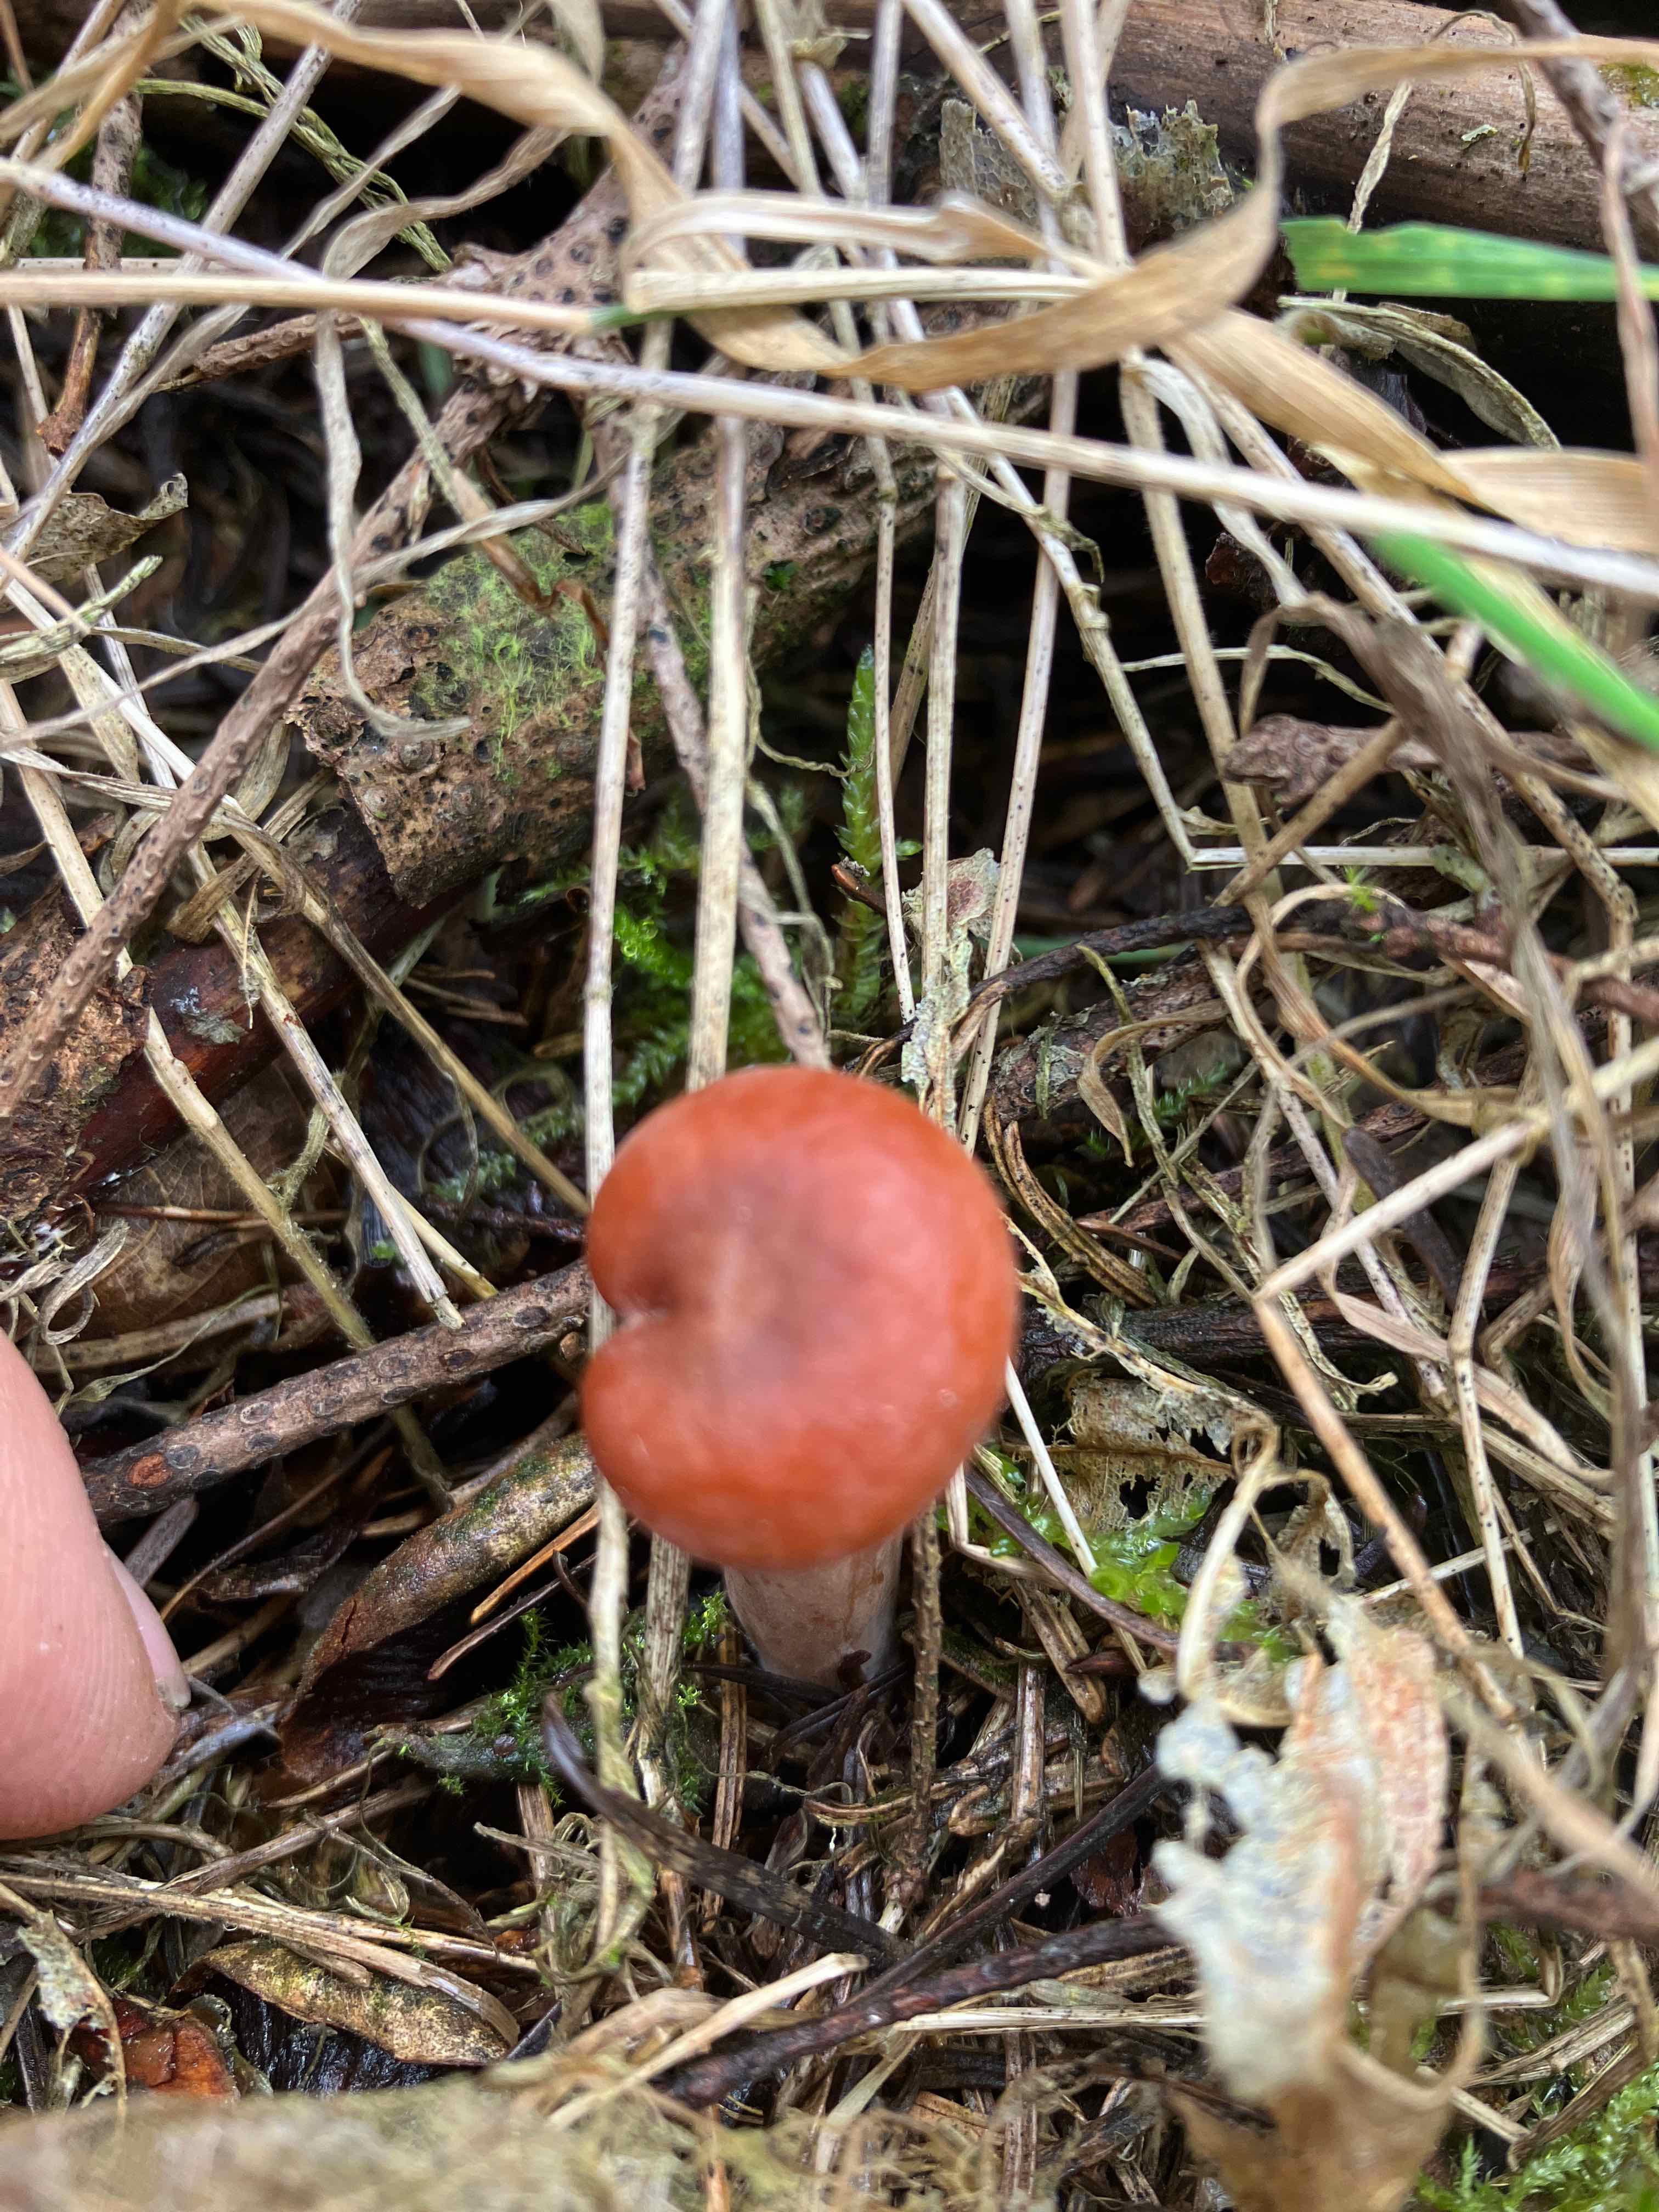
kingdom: Fungi
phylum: Basidiomycota
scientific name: Basidiomycota
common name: basidiesvampe
